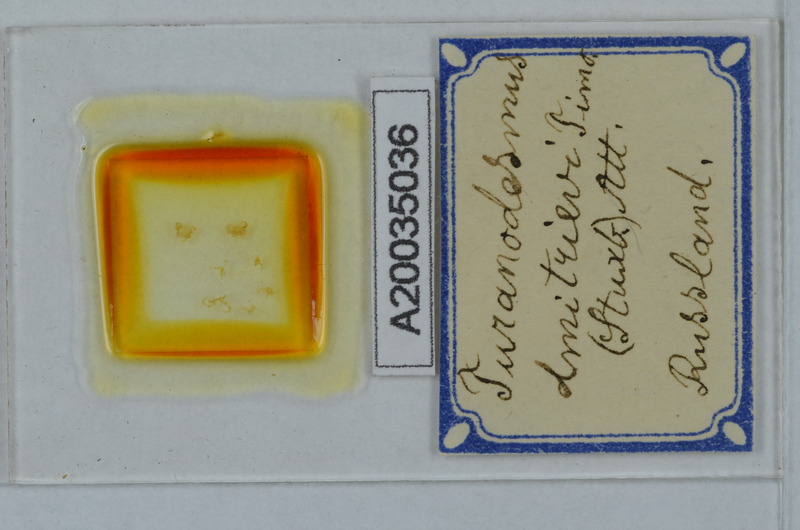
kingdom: Animalia
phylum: Arthropoda
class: Diplopoda
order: Polydesmida
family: Polydesmidae
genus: Turanodesmus
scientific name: Turanodesmus
